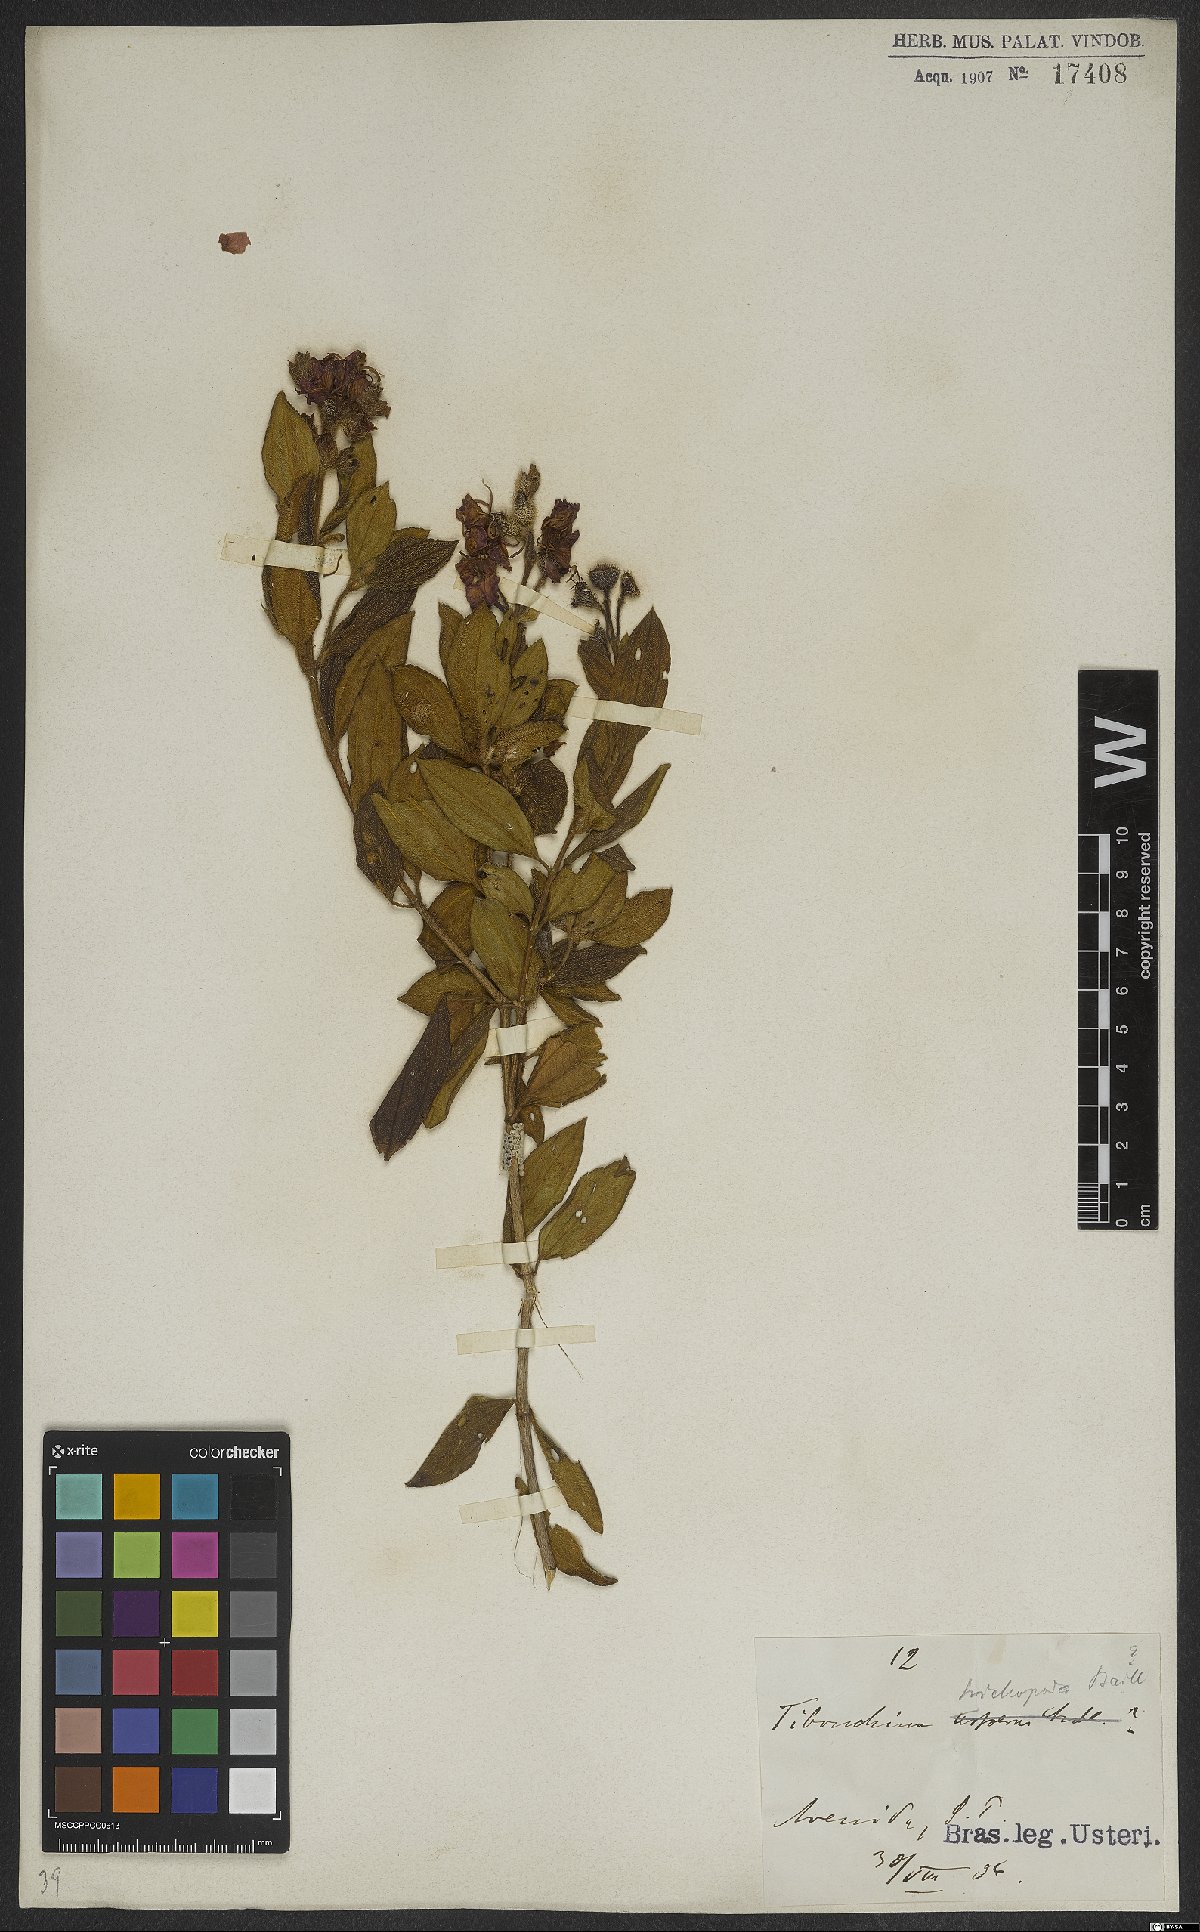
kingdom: Plantae
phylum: Tracheophyta
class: Magnoliopsida
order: Myrtales
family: Melastomataceae
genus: Pleroma
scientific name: Pleroma trichopodum
